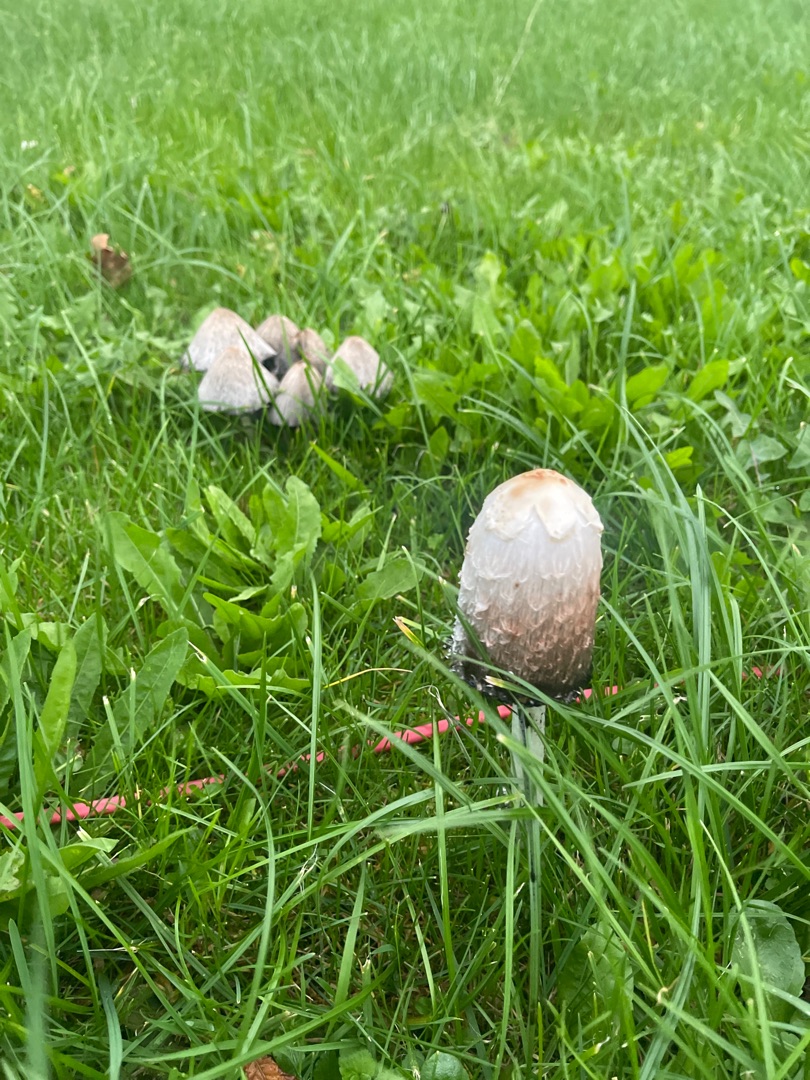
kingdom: Fungi
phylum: Basidiomycota
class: Agaricomycetes
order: Agaricales
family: Agaricaceae
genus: Coprinus
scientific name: Coprinus comatus
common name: Stor parykhat
